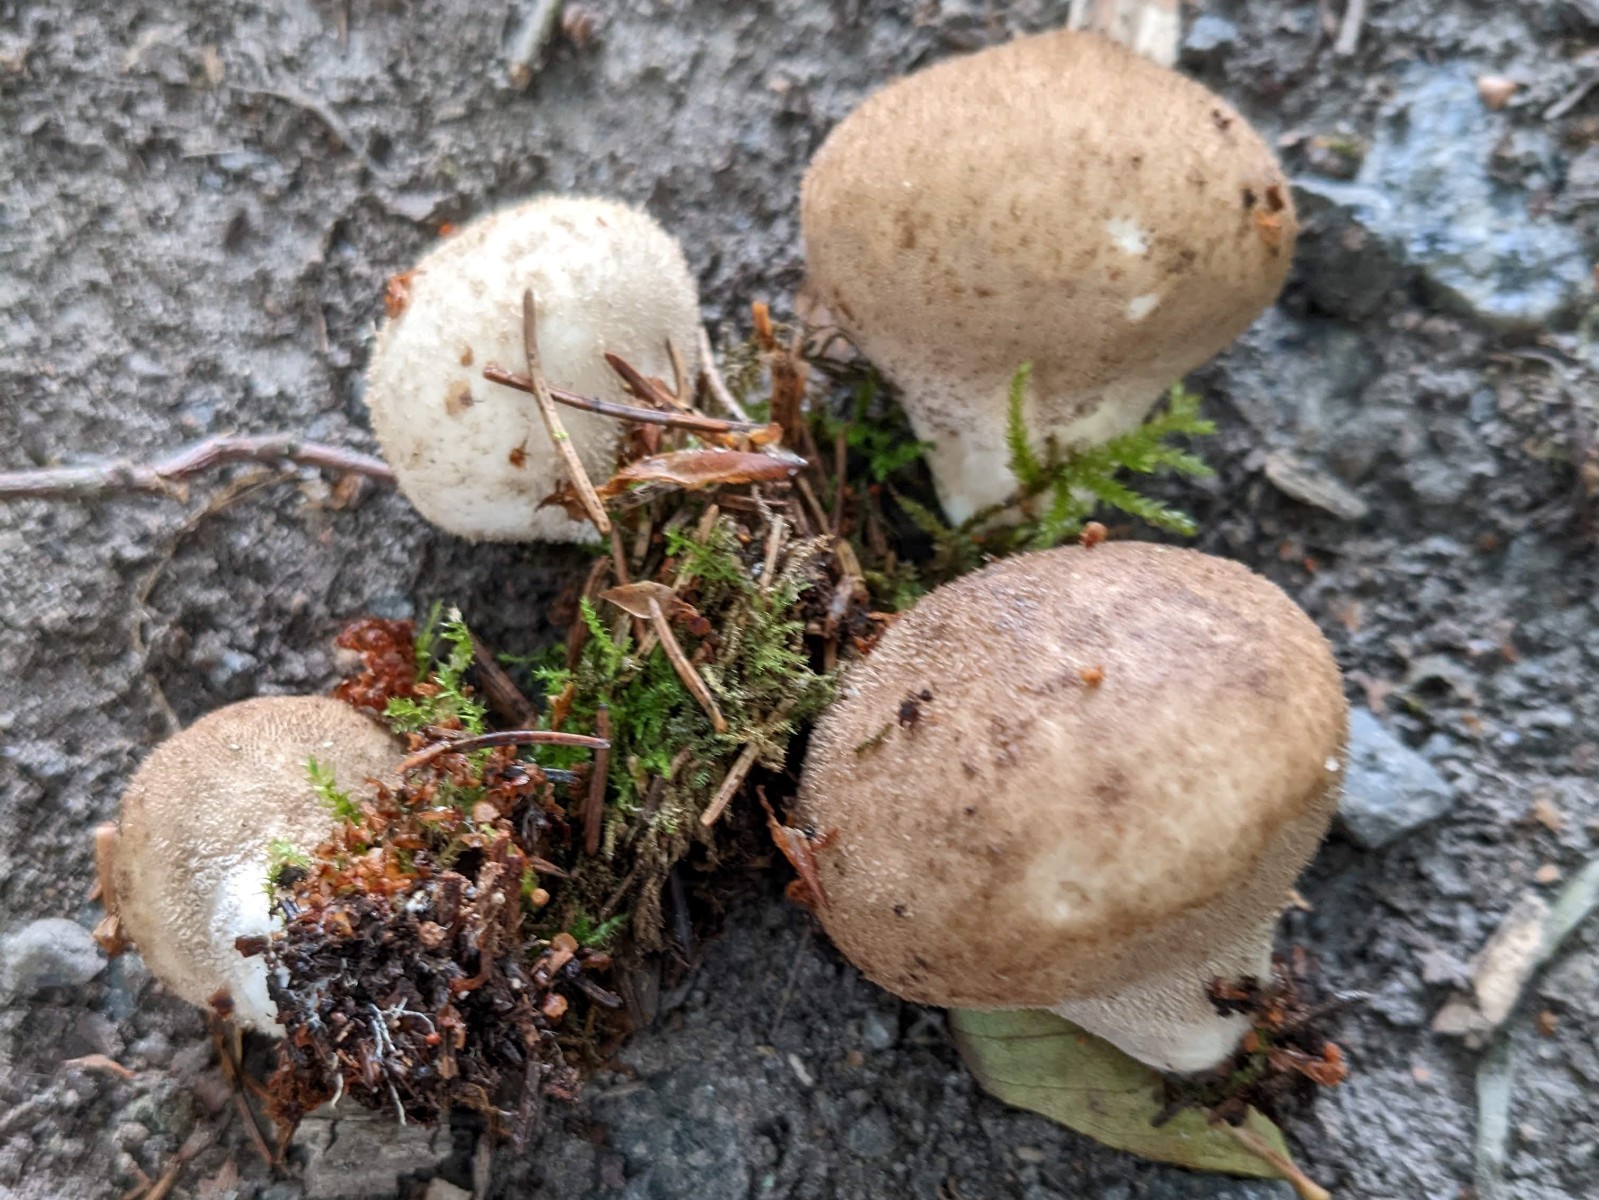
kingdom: Fungi
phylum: Basidiomycota
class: Agaricomycetes
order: Agaricales
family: Lycoperdaceae
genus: Lycoperdon
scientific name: Lycoperdon molle
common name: skov-støvbold
